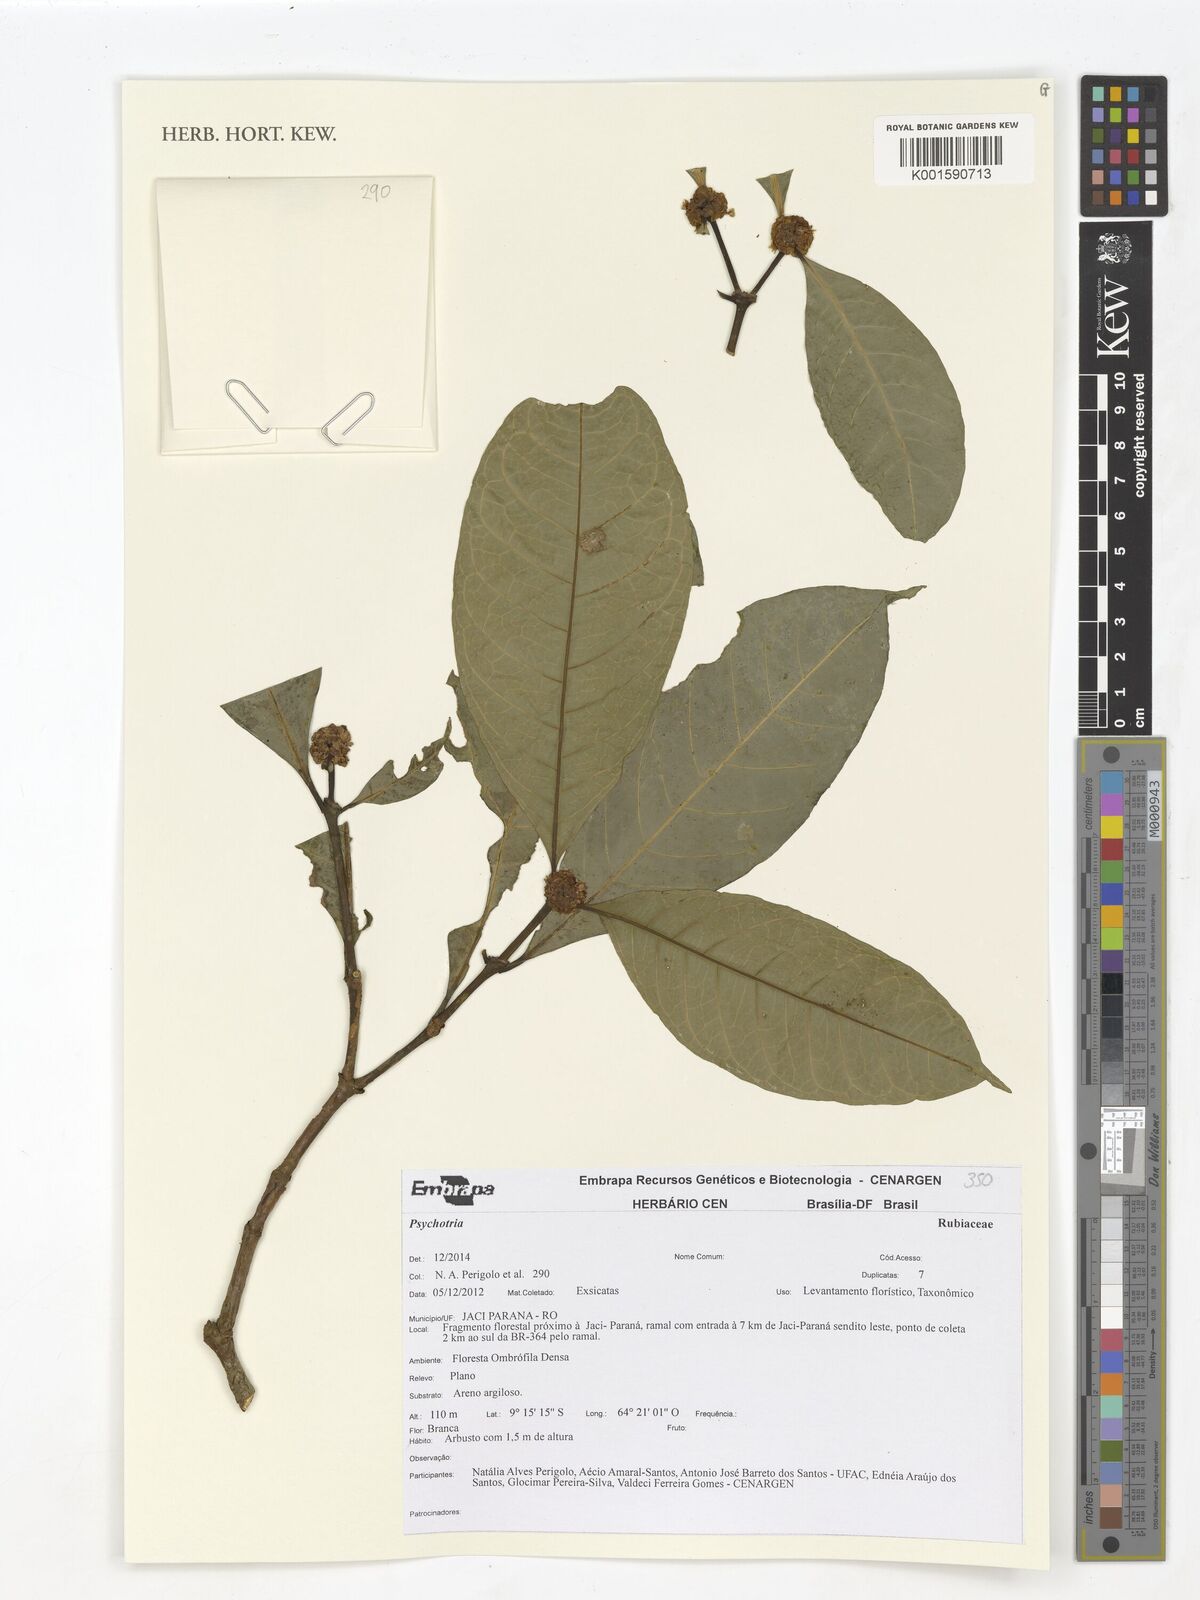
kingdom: Plantae
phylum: Tracheophyta
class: Magnoliopsida
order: Gentianales
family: Rubiaceae
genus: Psychotria
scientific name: Psychotria
